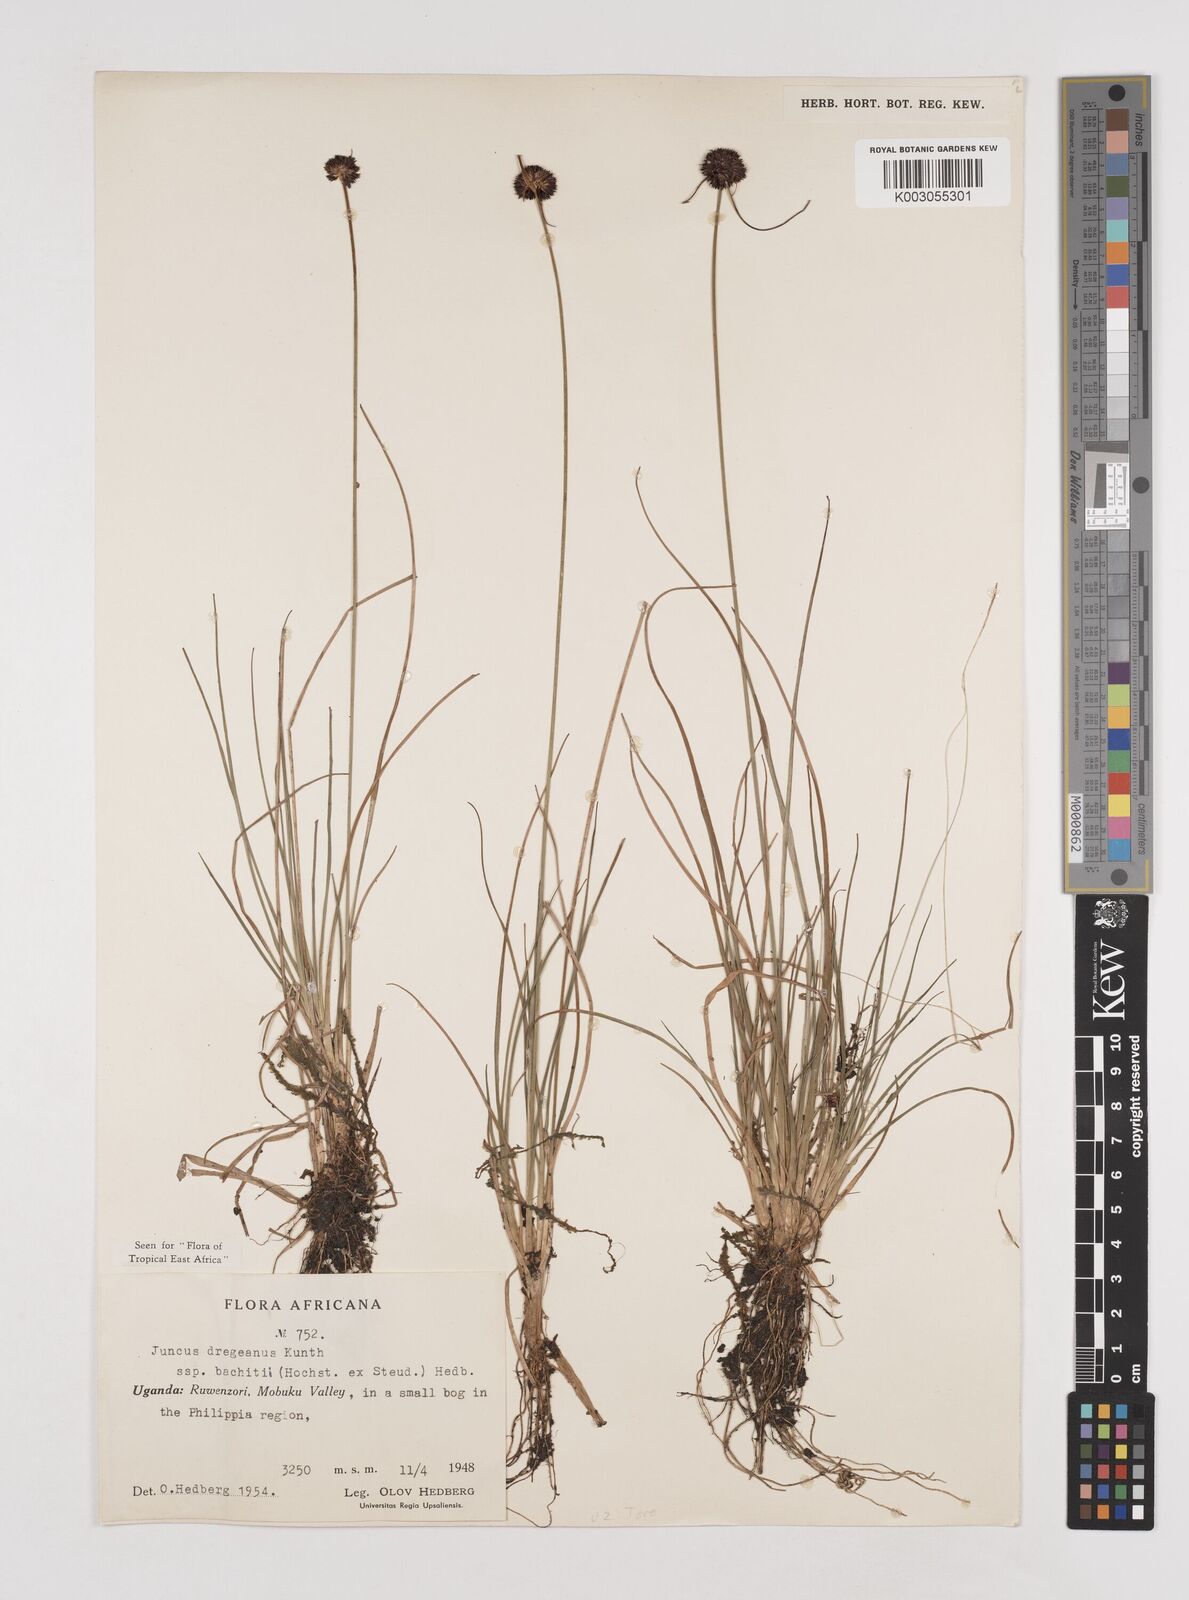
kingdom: Plantae
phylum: Tracheophyta
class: Liliopsida
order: Poales
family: Juncaceae
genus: Juncus
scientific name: Juncus dregeanus
